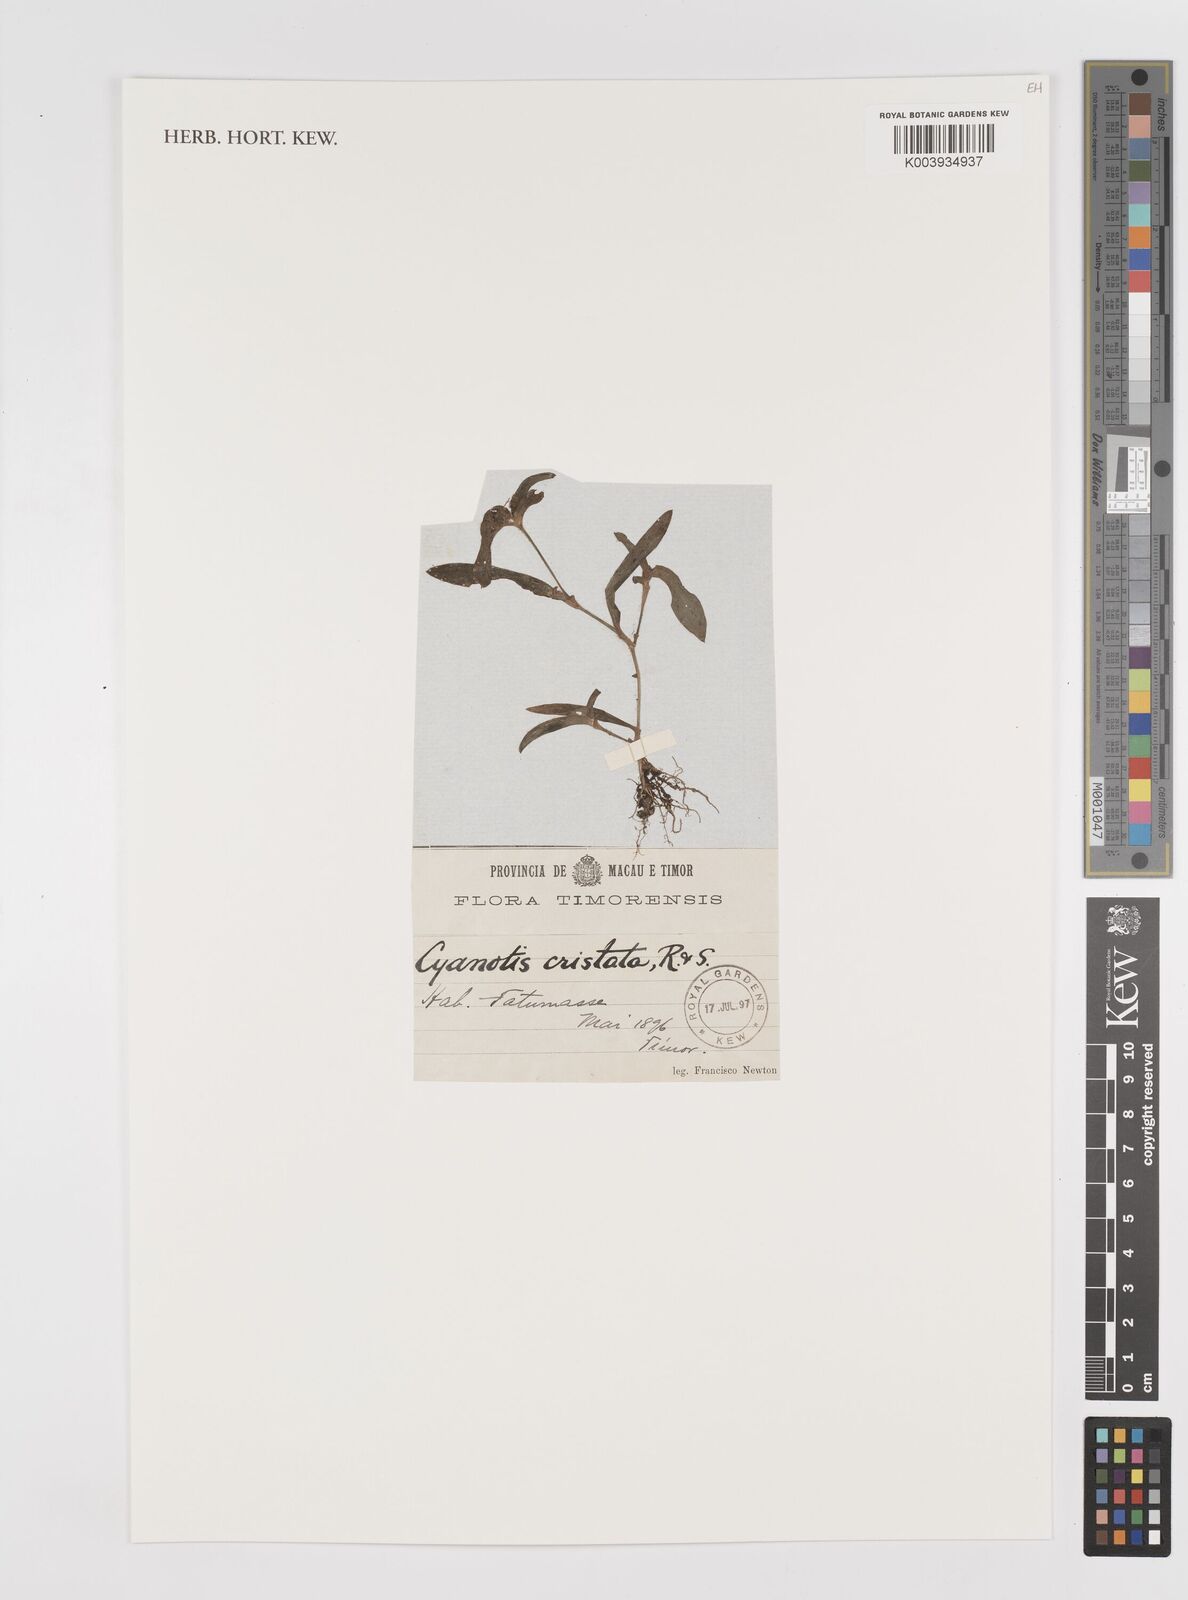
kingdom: Plantae
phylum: Tracheophyta
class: Liliopsida
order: Commelinales
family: Commelinaceae
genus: Cyanotis
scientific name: Cyanotis cristata
